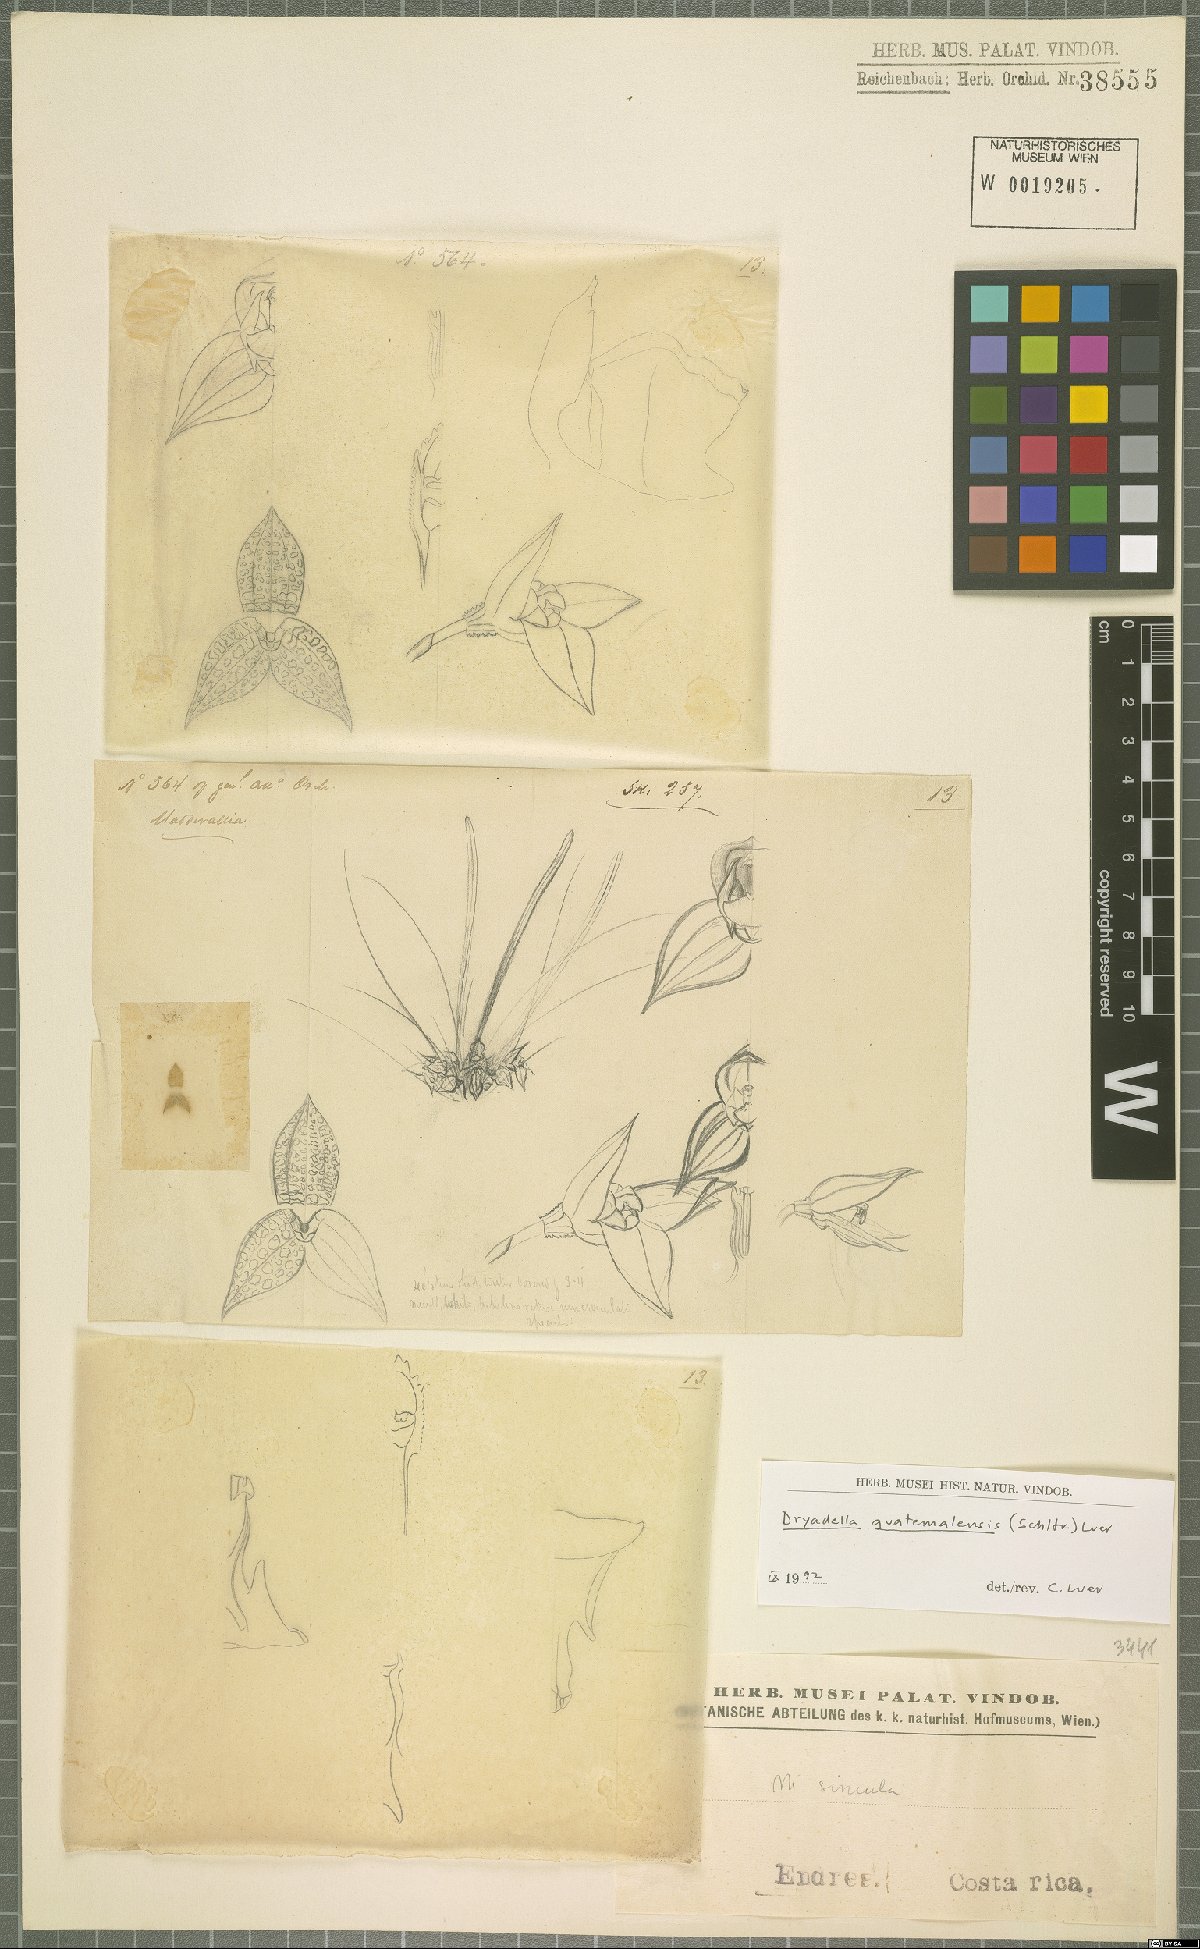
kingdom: Plantae
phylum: Tracheophyta
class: Liliopsida
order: Asparagales
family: Orchidaceae
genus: Dryadella
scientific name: Dryadella guatemalensis
